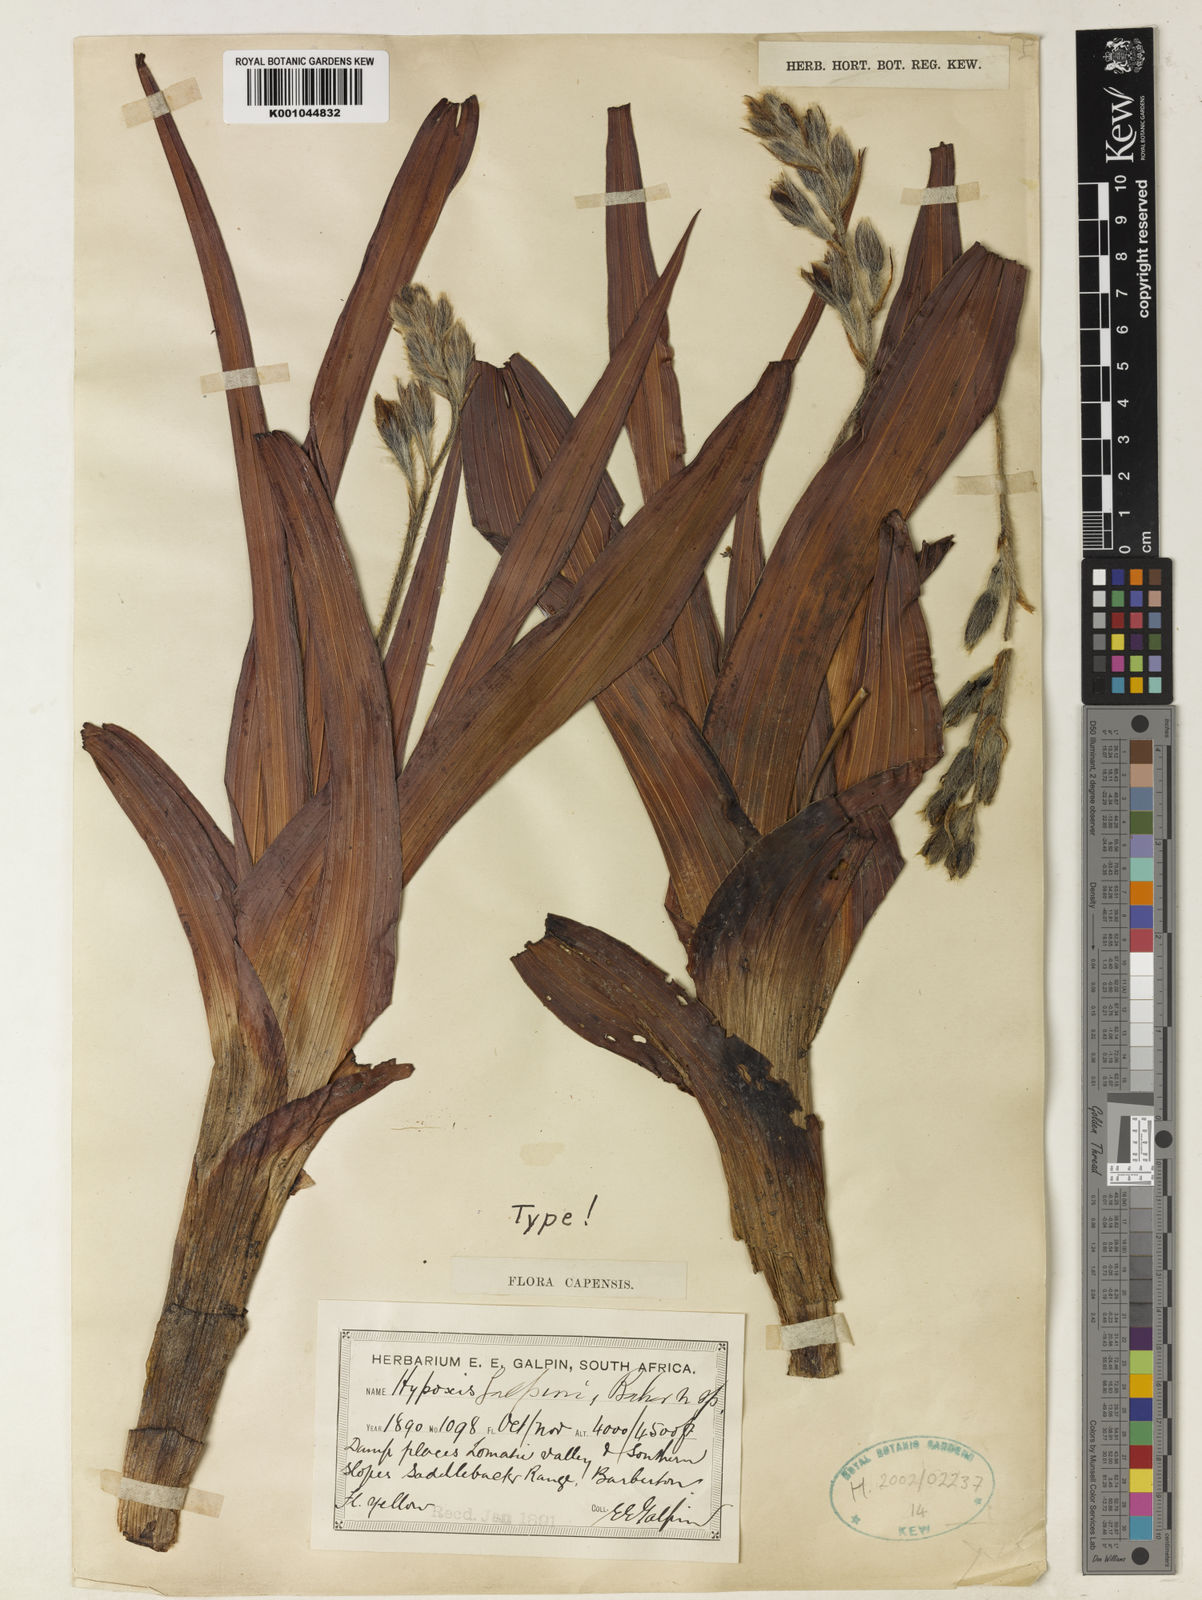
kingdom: Plantae
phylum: Tracheophyta
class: Liliopsida
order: Asparagales
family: Hypoxidaceae
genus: Hypoxis
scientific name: Hypoxis rigidula
